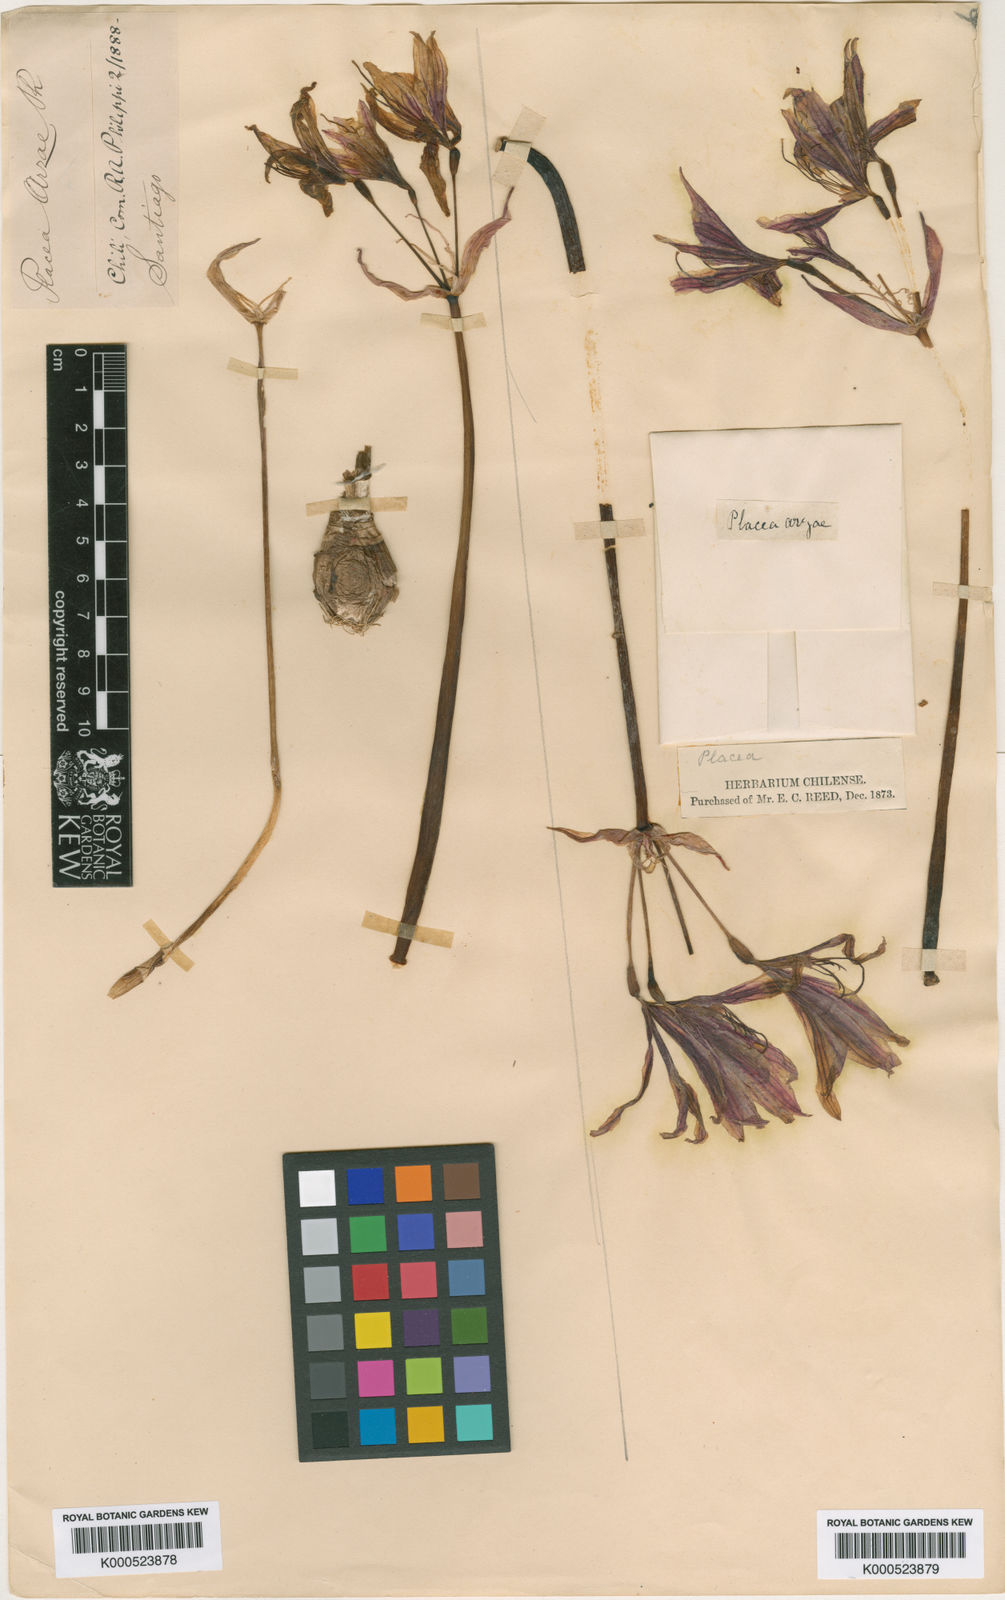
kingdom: Plantae
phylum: Tracheophyta
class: Liliopsida
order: Asparagales
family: Amaryllidaceae
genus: Phycella
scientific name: Phycella arzae
